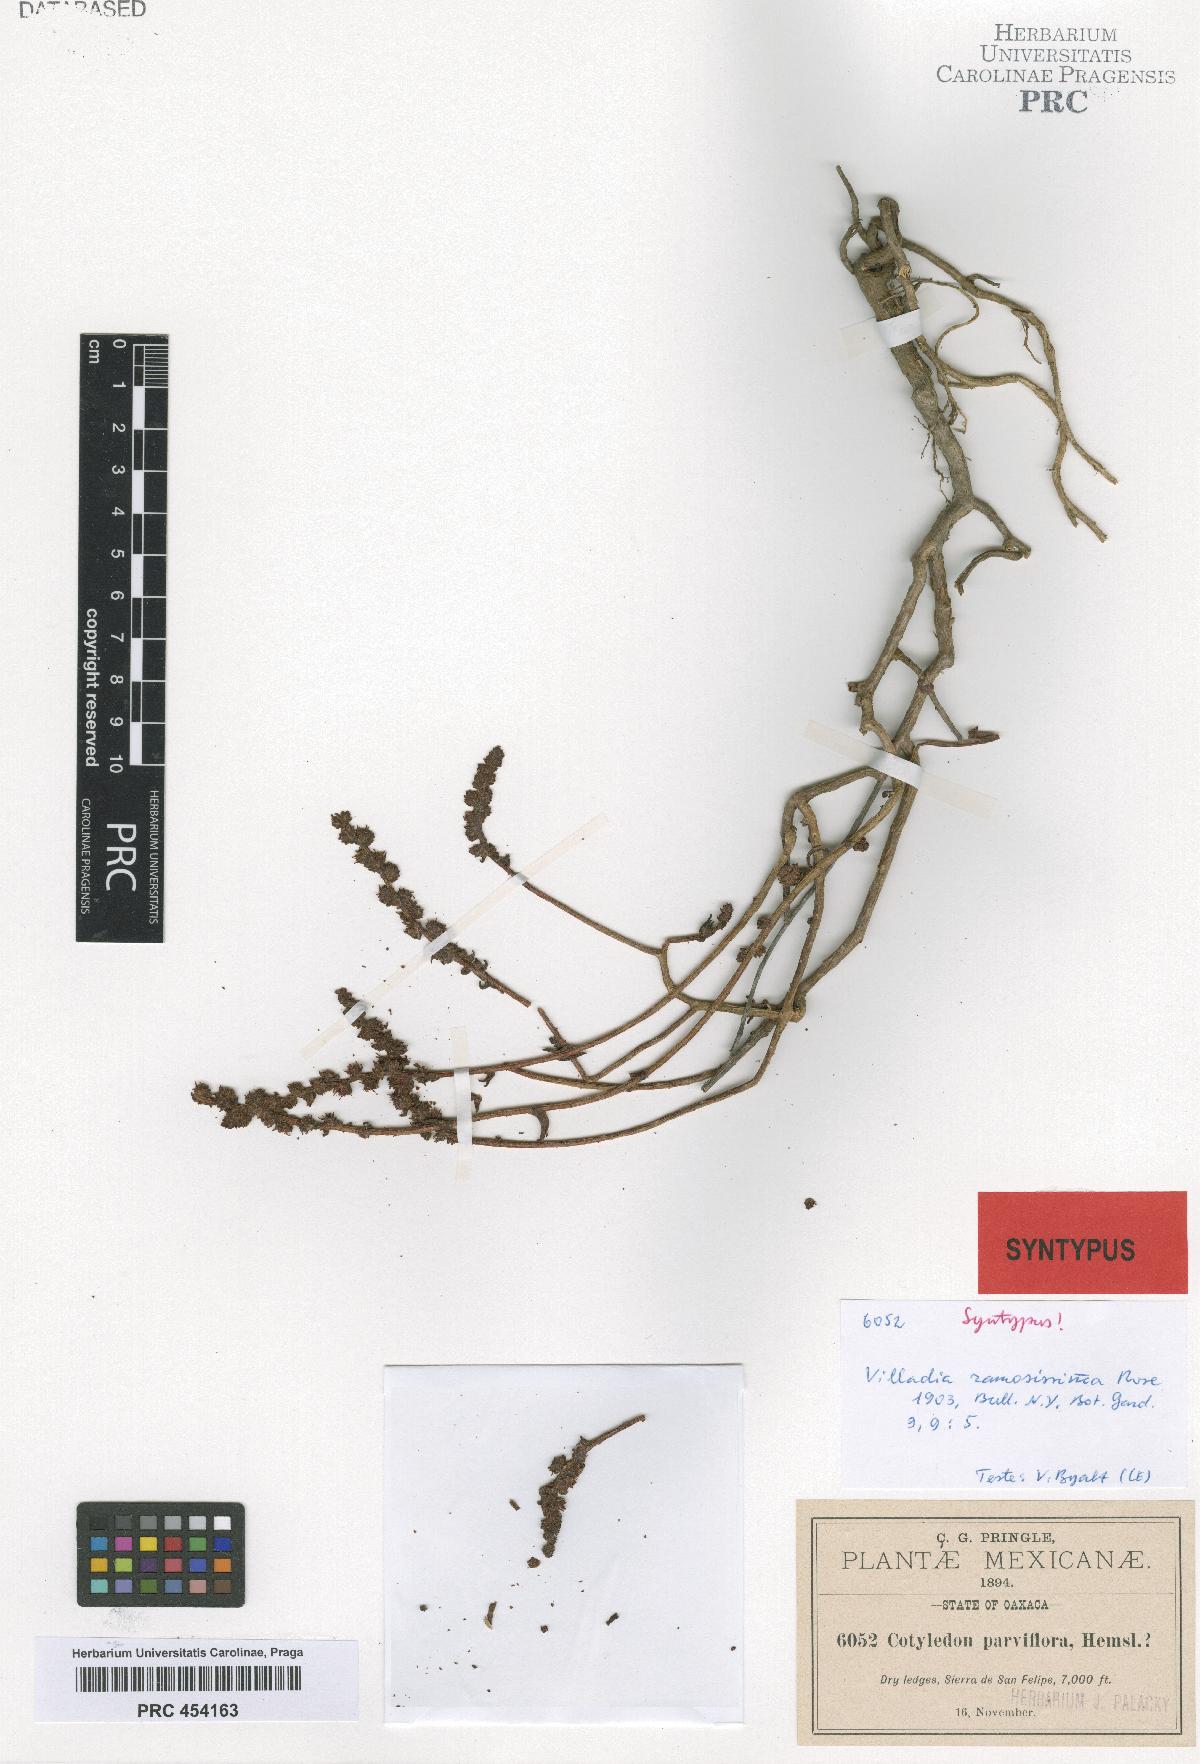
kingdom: Plantae
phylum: Tracheophyta
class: Magnoliopsida
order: Saxifragales
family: Crassulaceae
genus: Villadia
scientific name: Villadia albiflora
